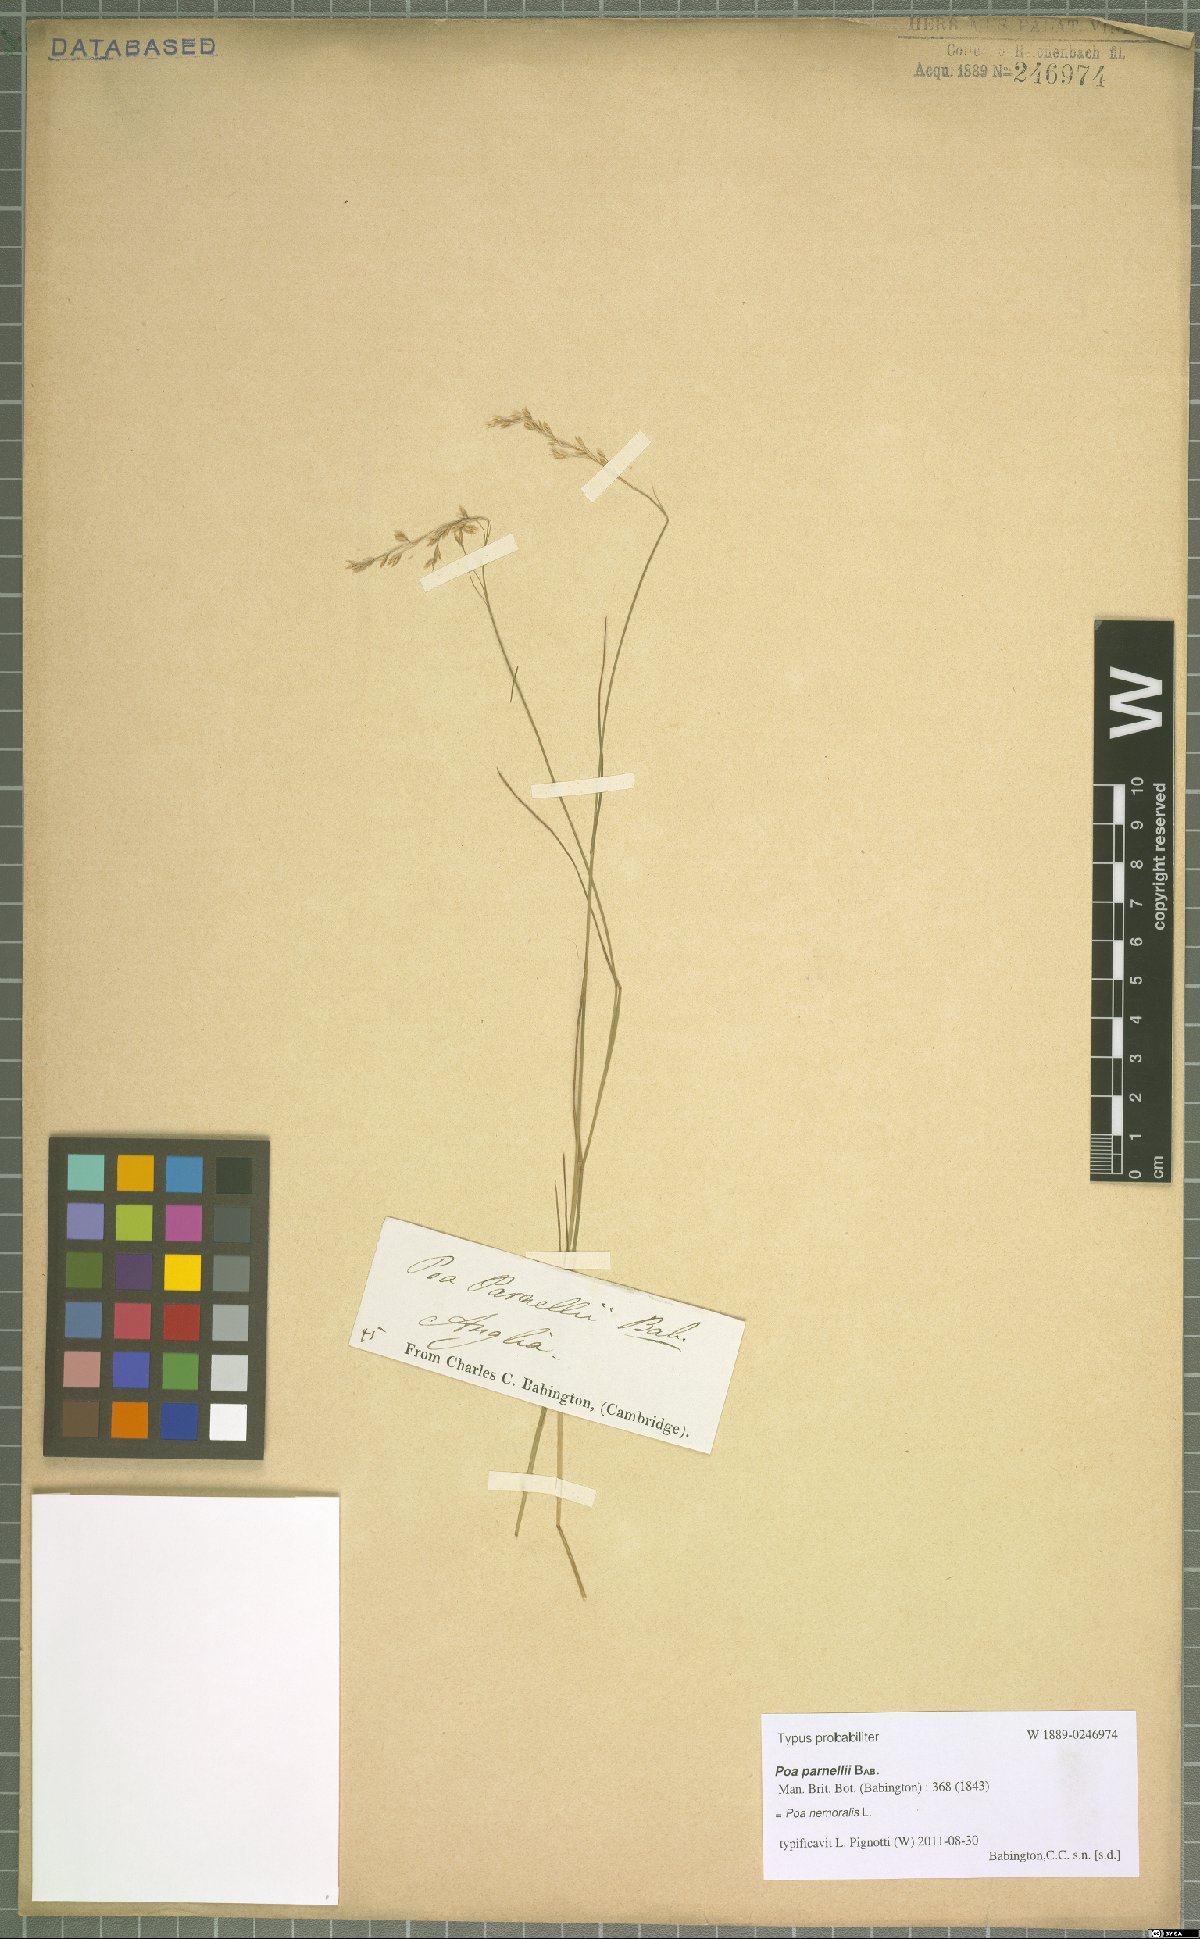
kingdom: Plantae
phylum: Tracheophyta
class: Liliopsida
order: Poales
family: Poaceae
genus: Poa
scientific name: Poa nemoralis
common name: Wood bluegrass
